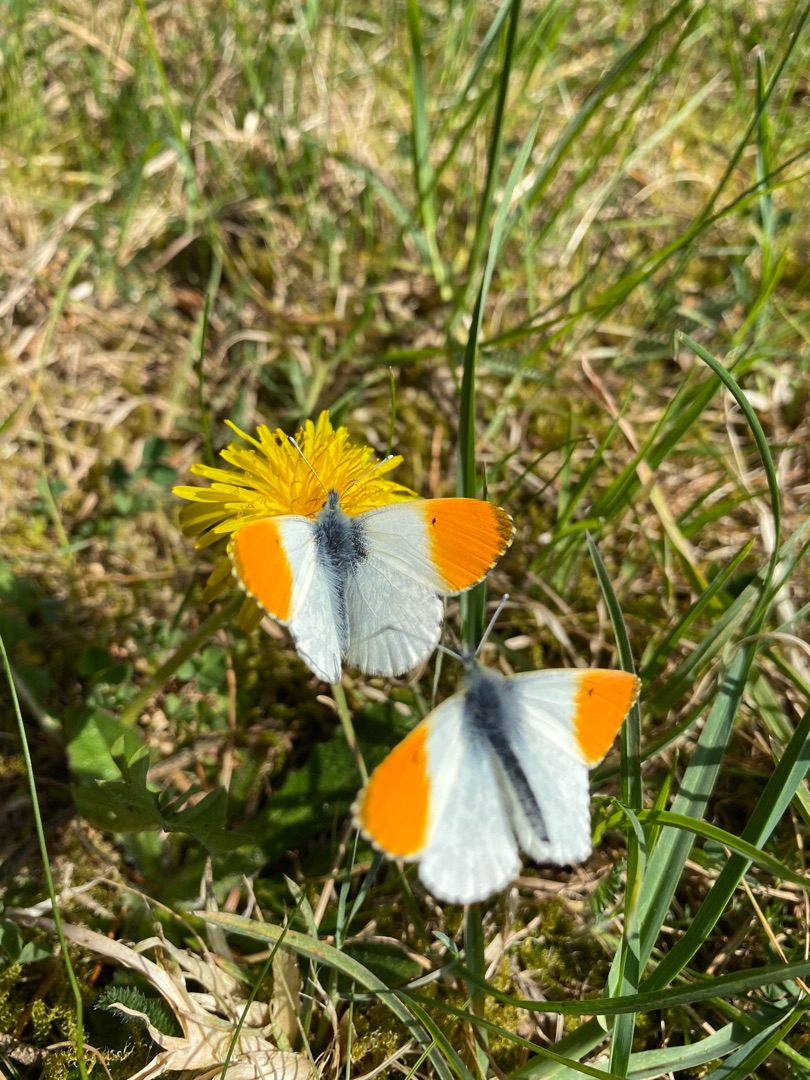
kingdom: Animalia
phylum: Arthropoda
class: Insecta
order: Lepidoptera
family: Pieridae
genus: Anthocharis
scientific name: Anthocharis cardamines
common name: Aurora
